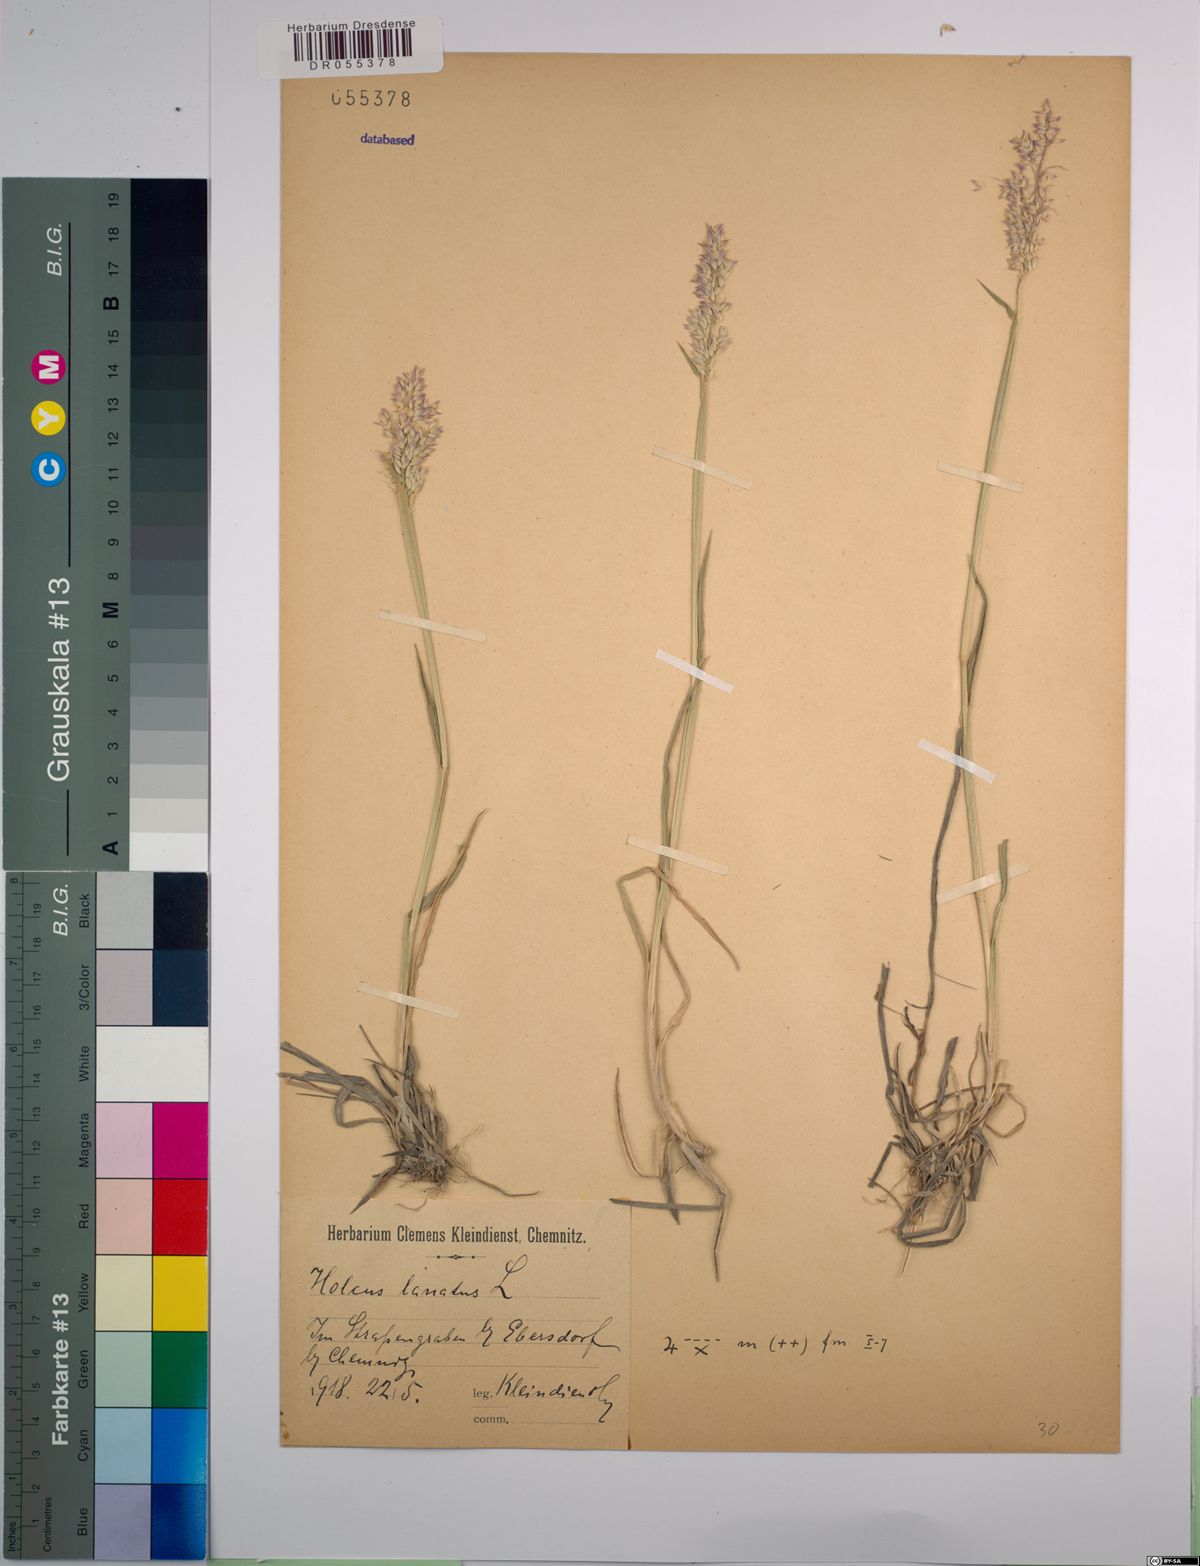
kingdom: Plantae
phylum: Tracheophyta
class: Liliopsida
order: Poales
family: Poaceae
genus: Holcus
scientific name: Holcus lanatus
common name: Yorkshire-fog
